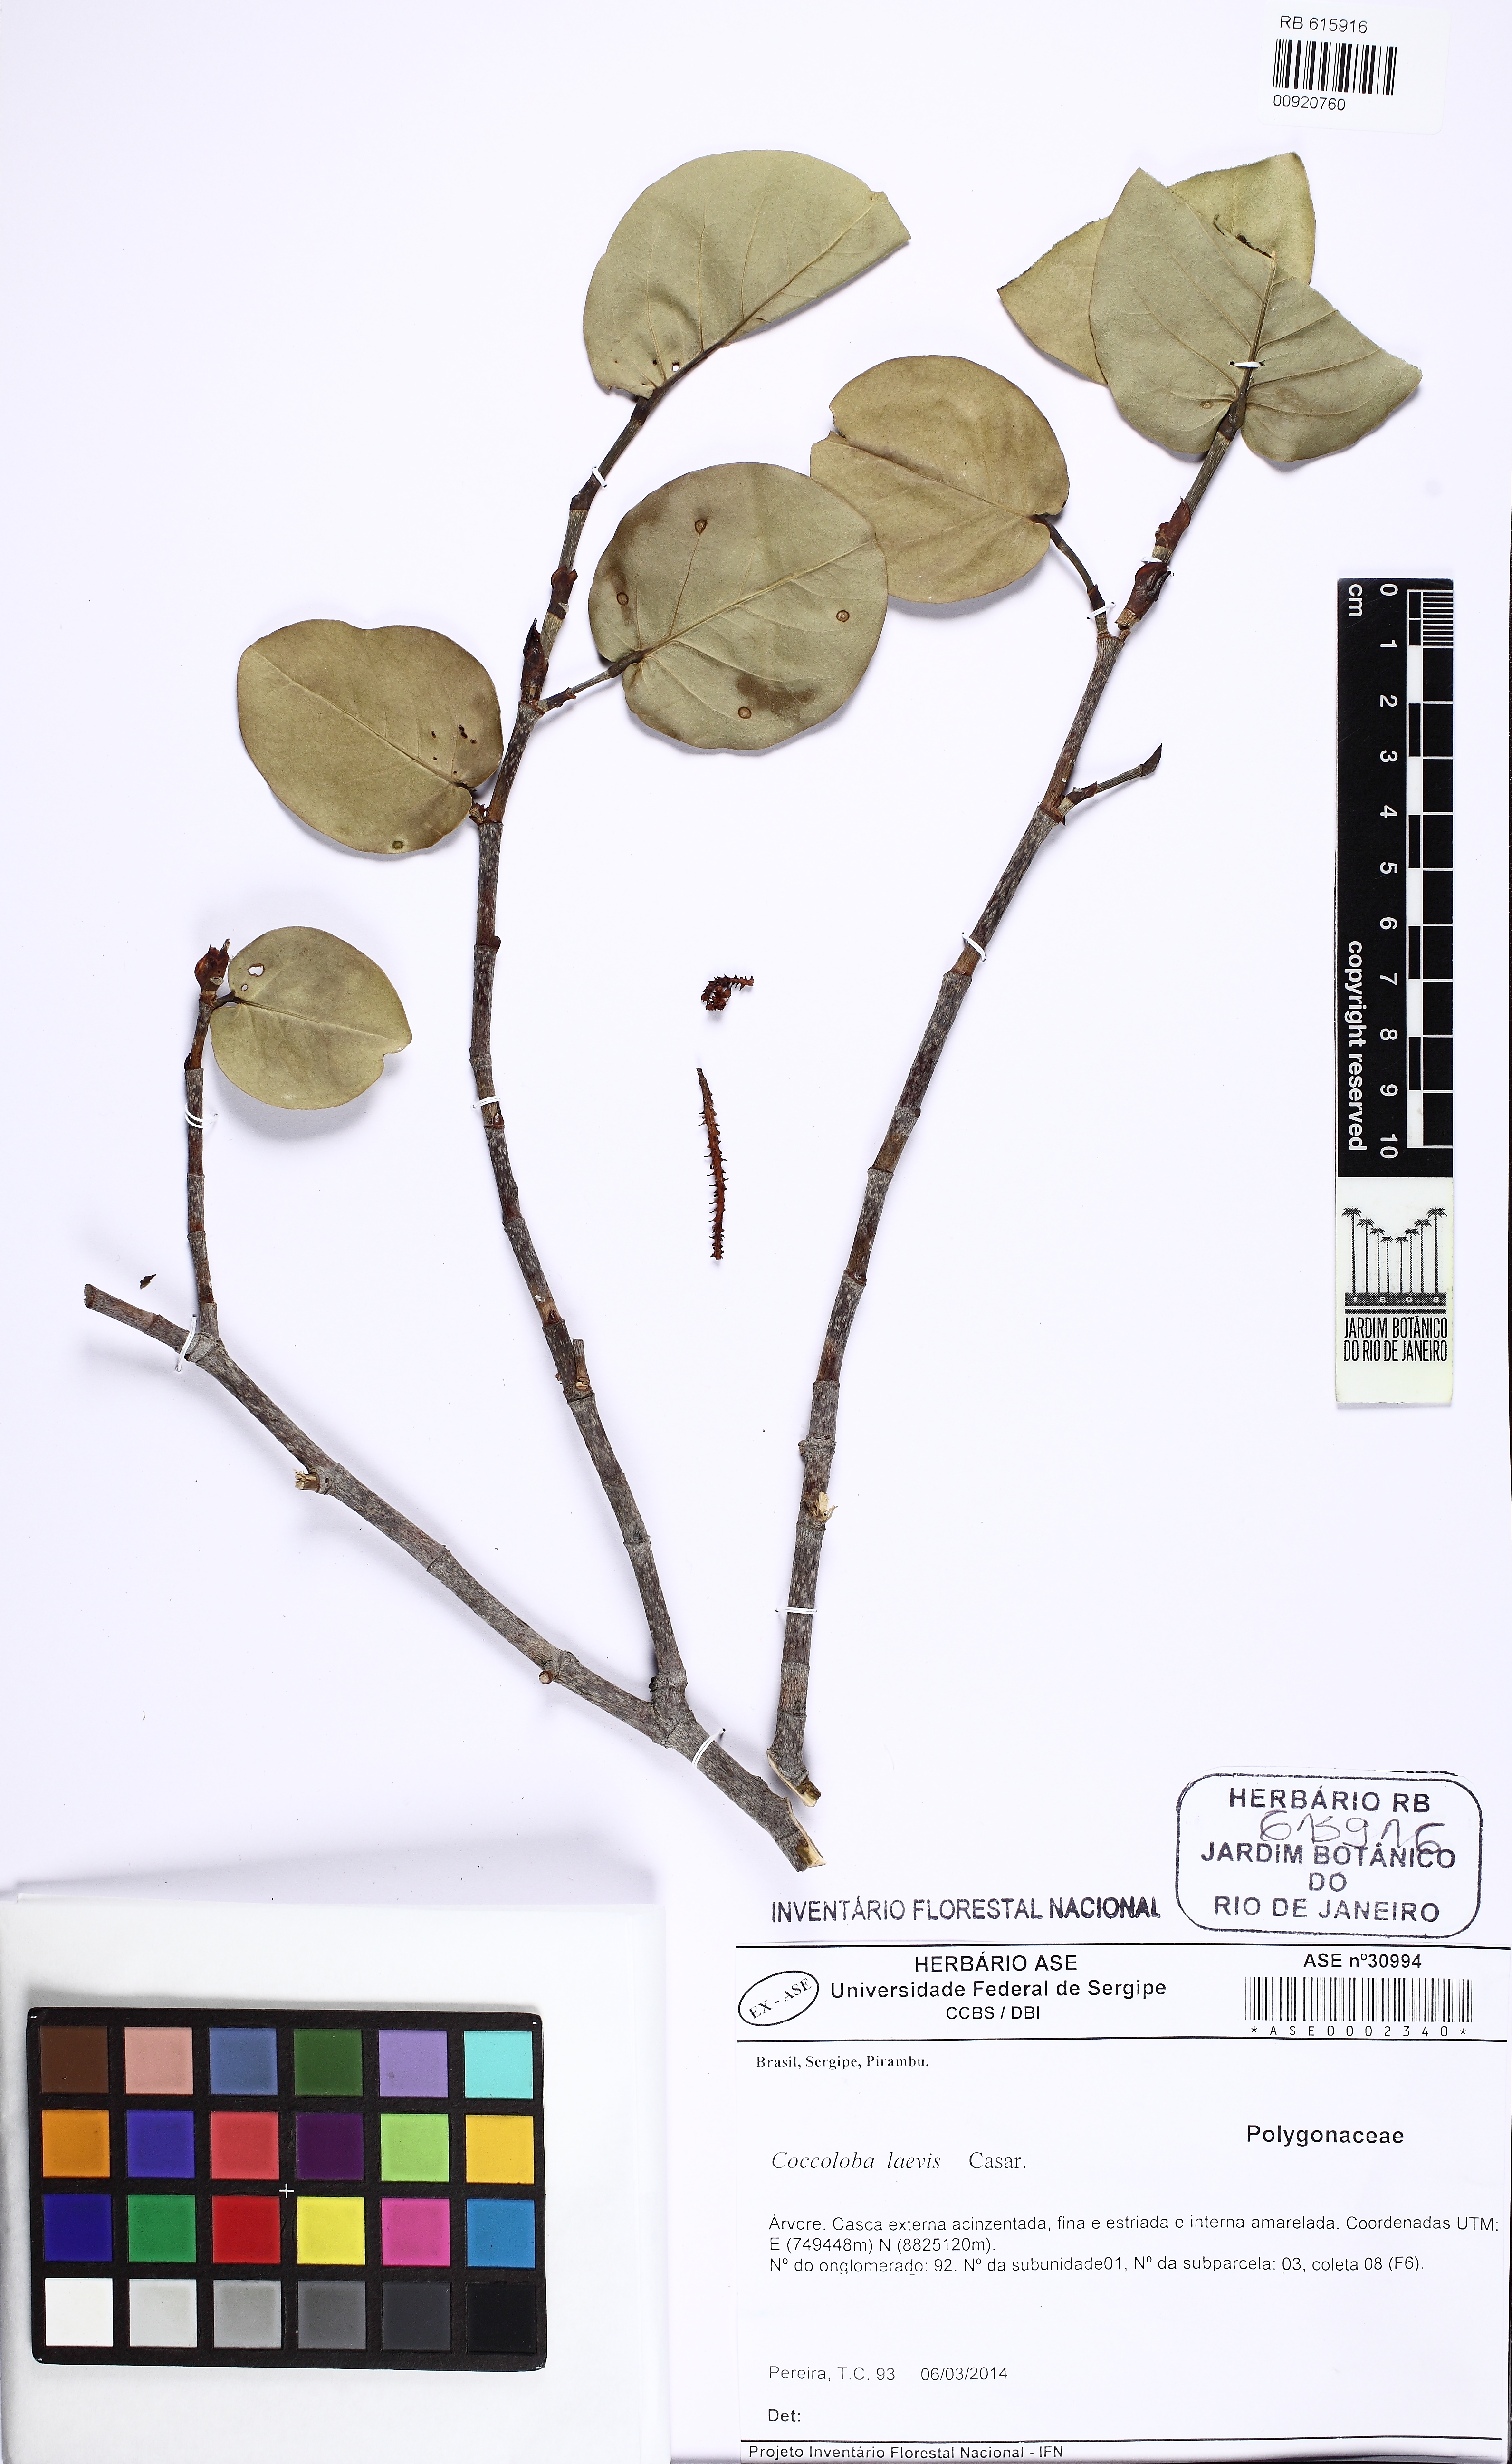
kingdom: Plantae
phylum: Tracheophyta
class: Magnoliopsida
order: Caryophyllales
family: Polygonaceae
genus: Coccoloba
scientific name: Coccoloba laevis
